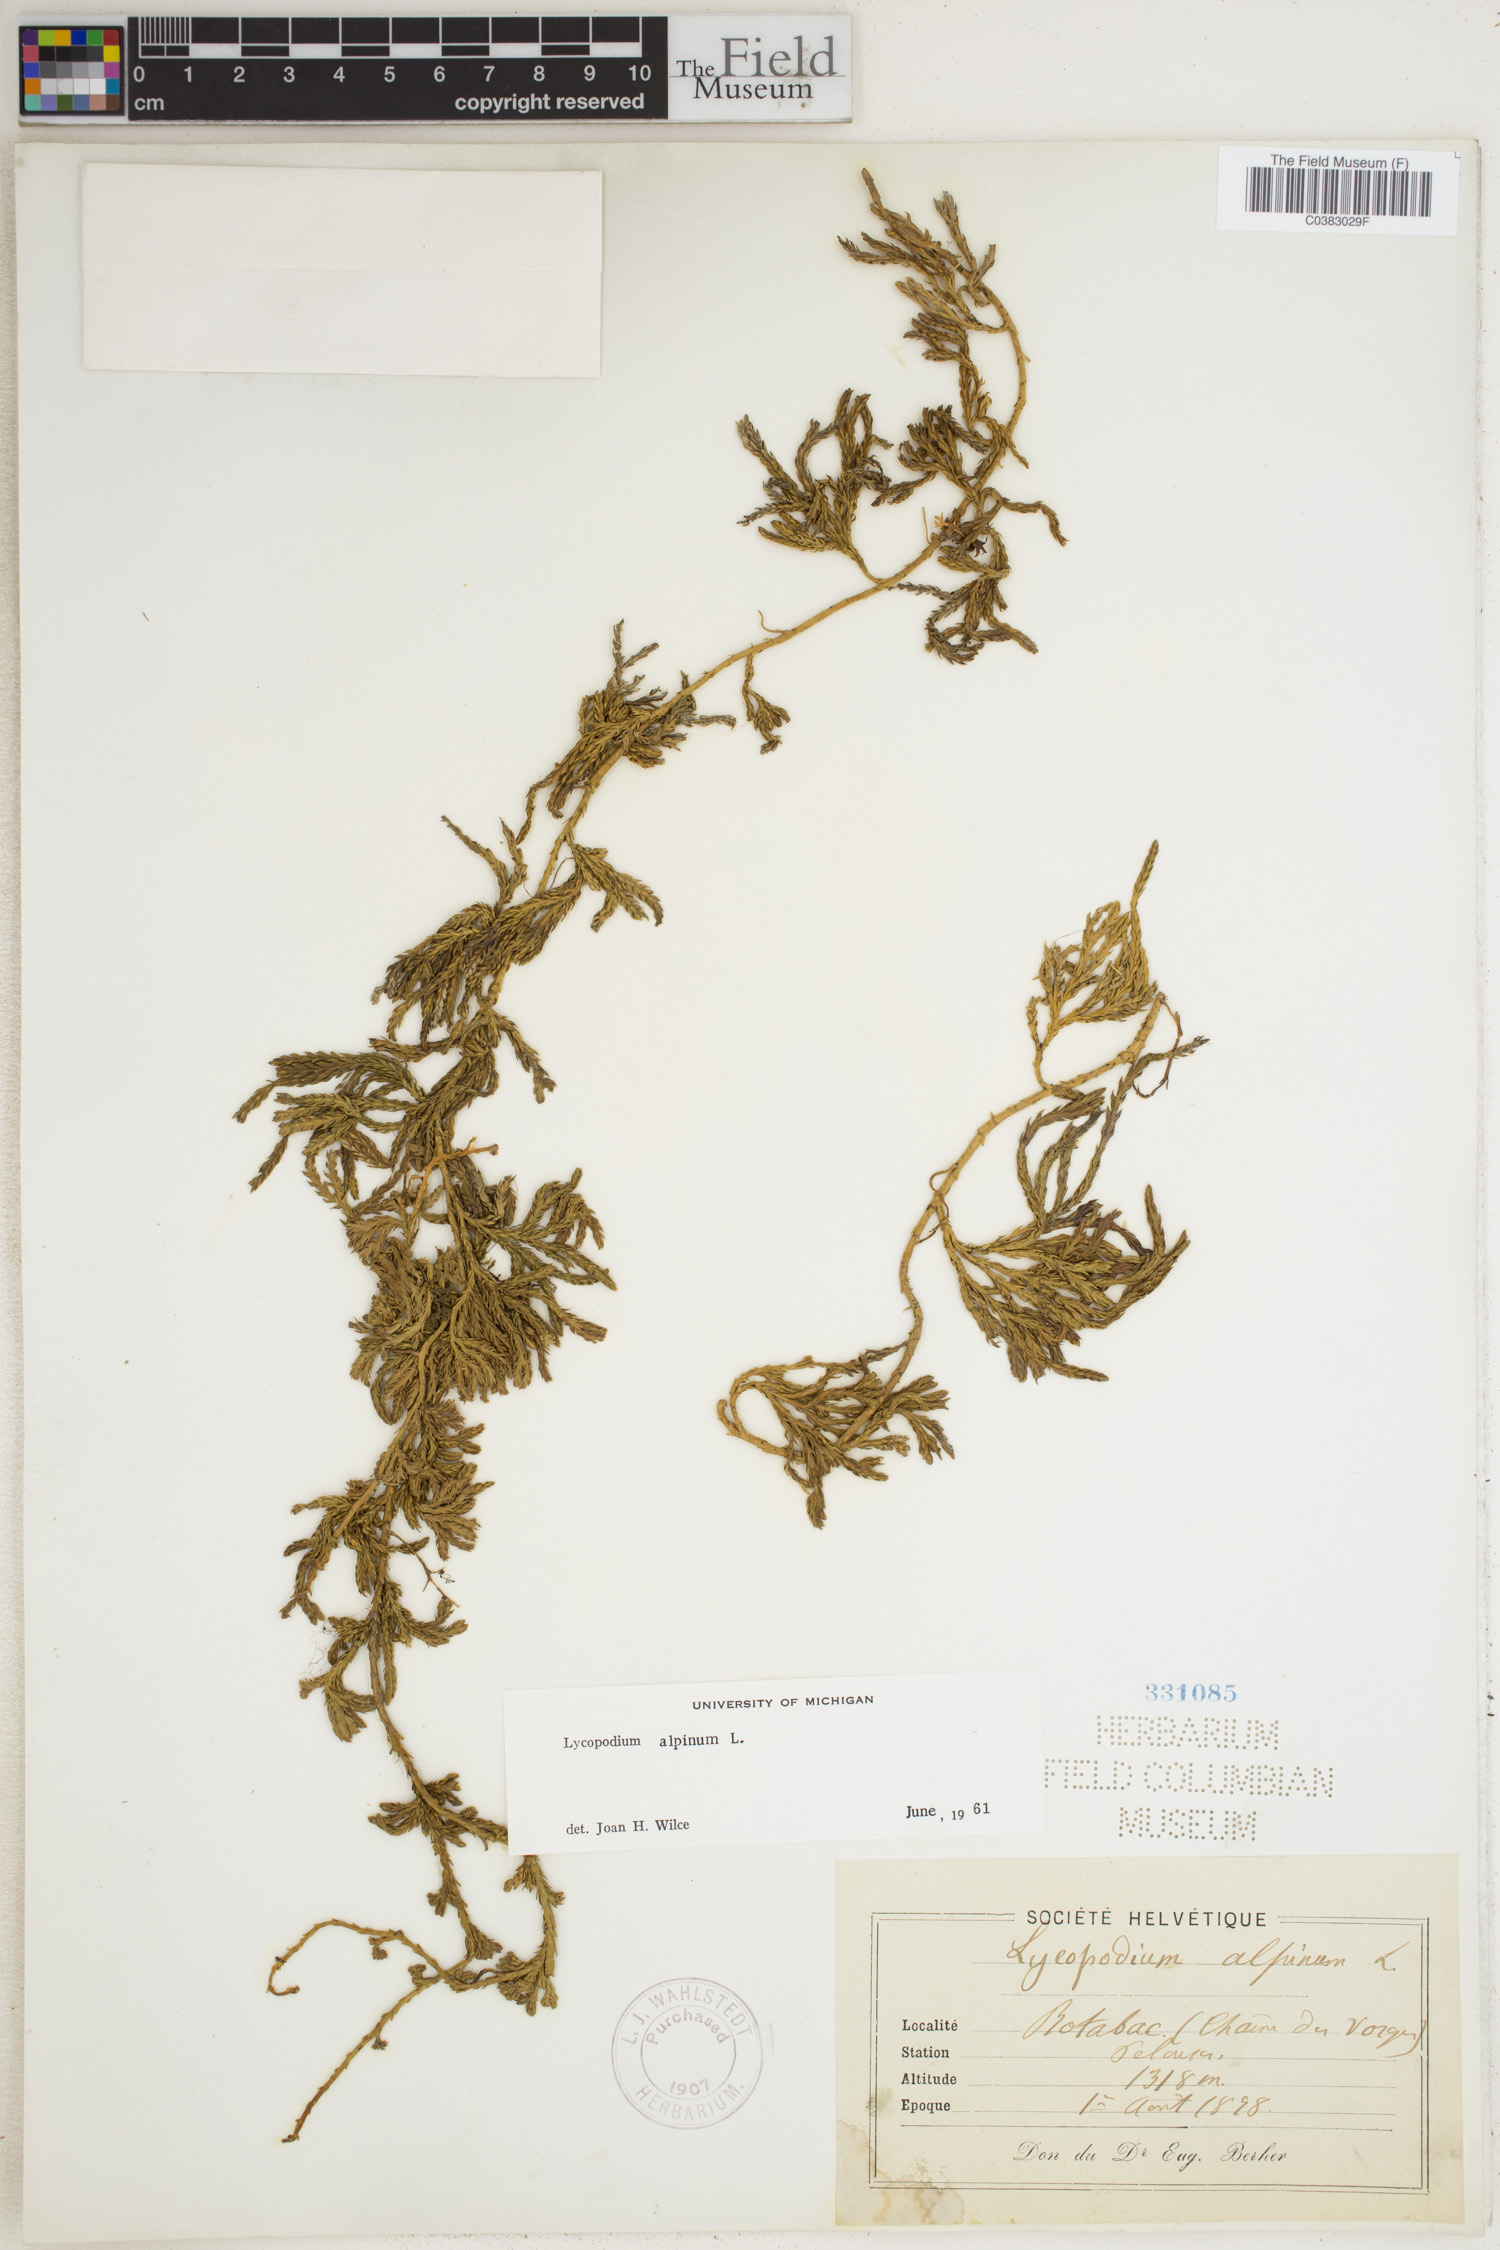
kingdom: Plantae
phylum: Tracheophyta
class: Lycopodiopsida
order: Lycopodiales
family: Lycopodiaceae
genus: Diphasiastrum
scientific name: Diphasiastrum alpinum
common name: Alpine clubmoss
